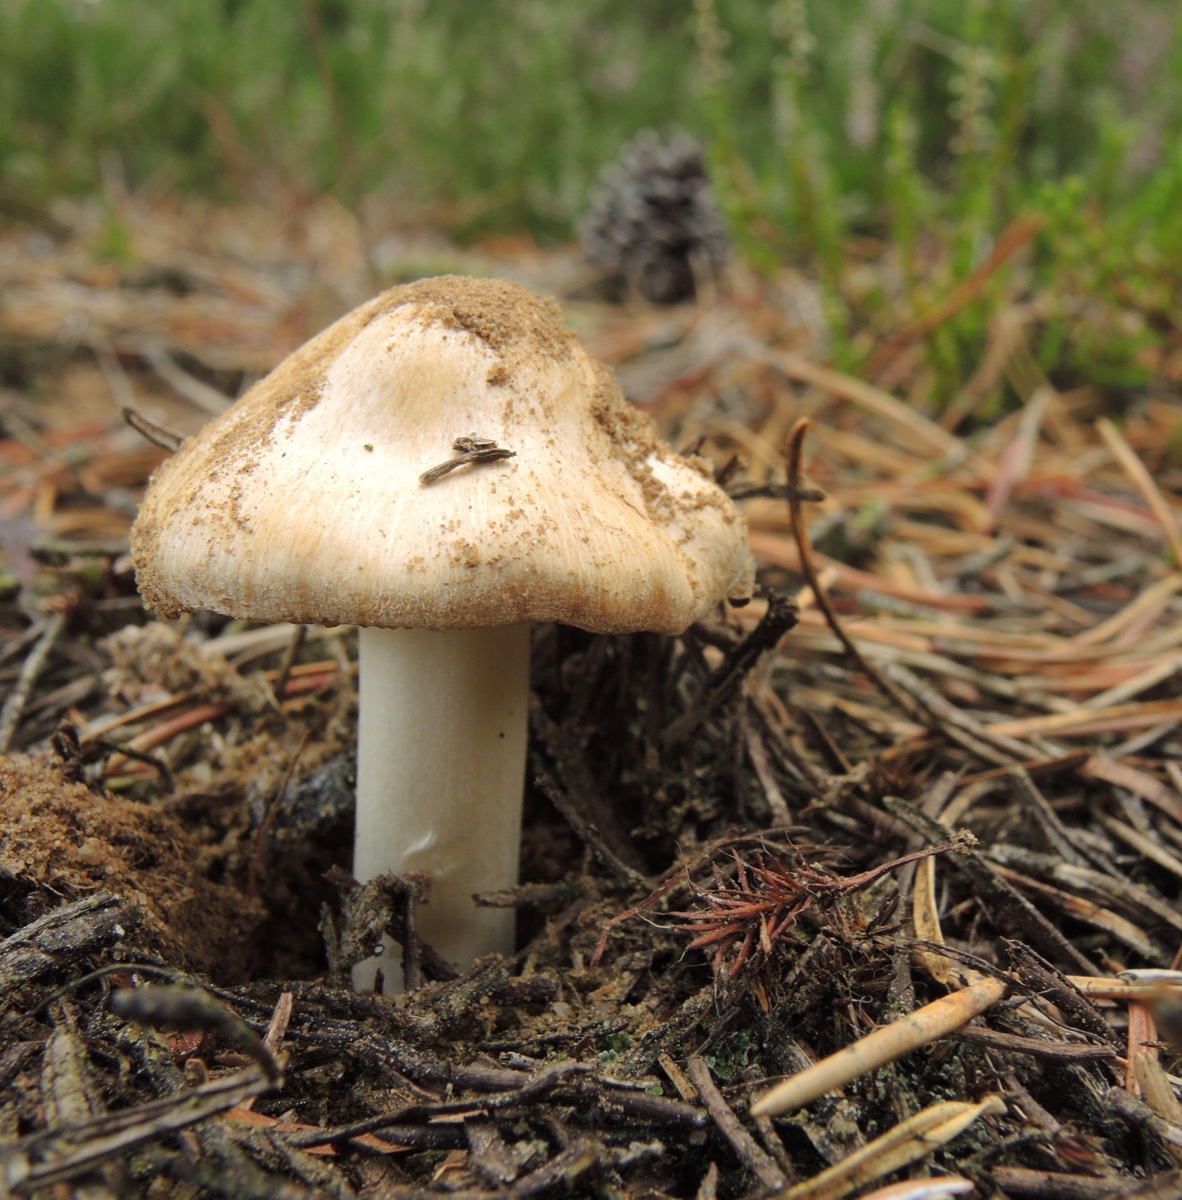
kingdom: Fungi
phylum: Basidiomycota
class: Agaricomycetes
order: Agaricales
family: Inocybaceae
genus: Inocybe
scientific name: Inocybe sambucina
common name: hyldehvid trævlhat
